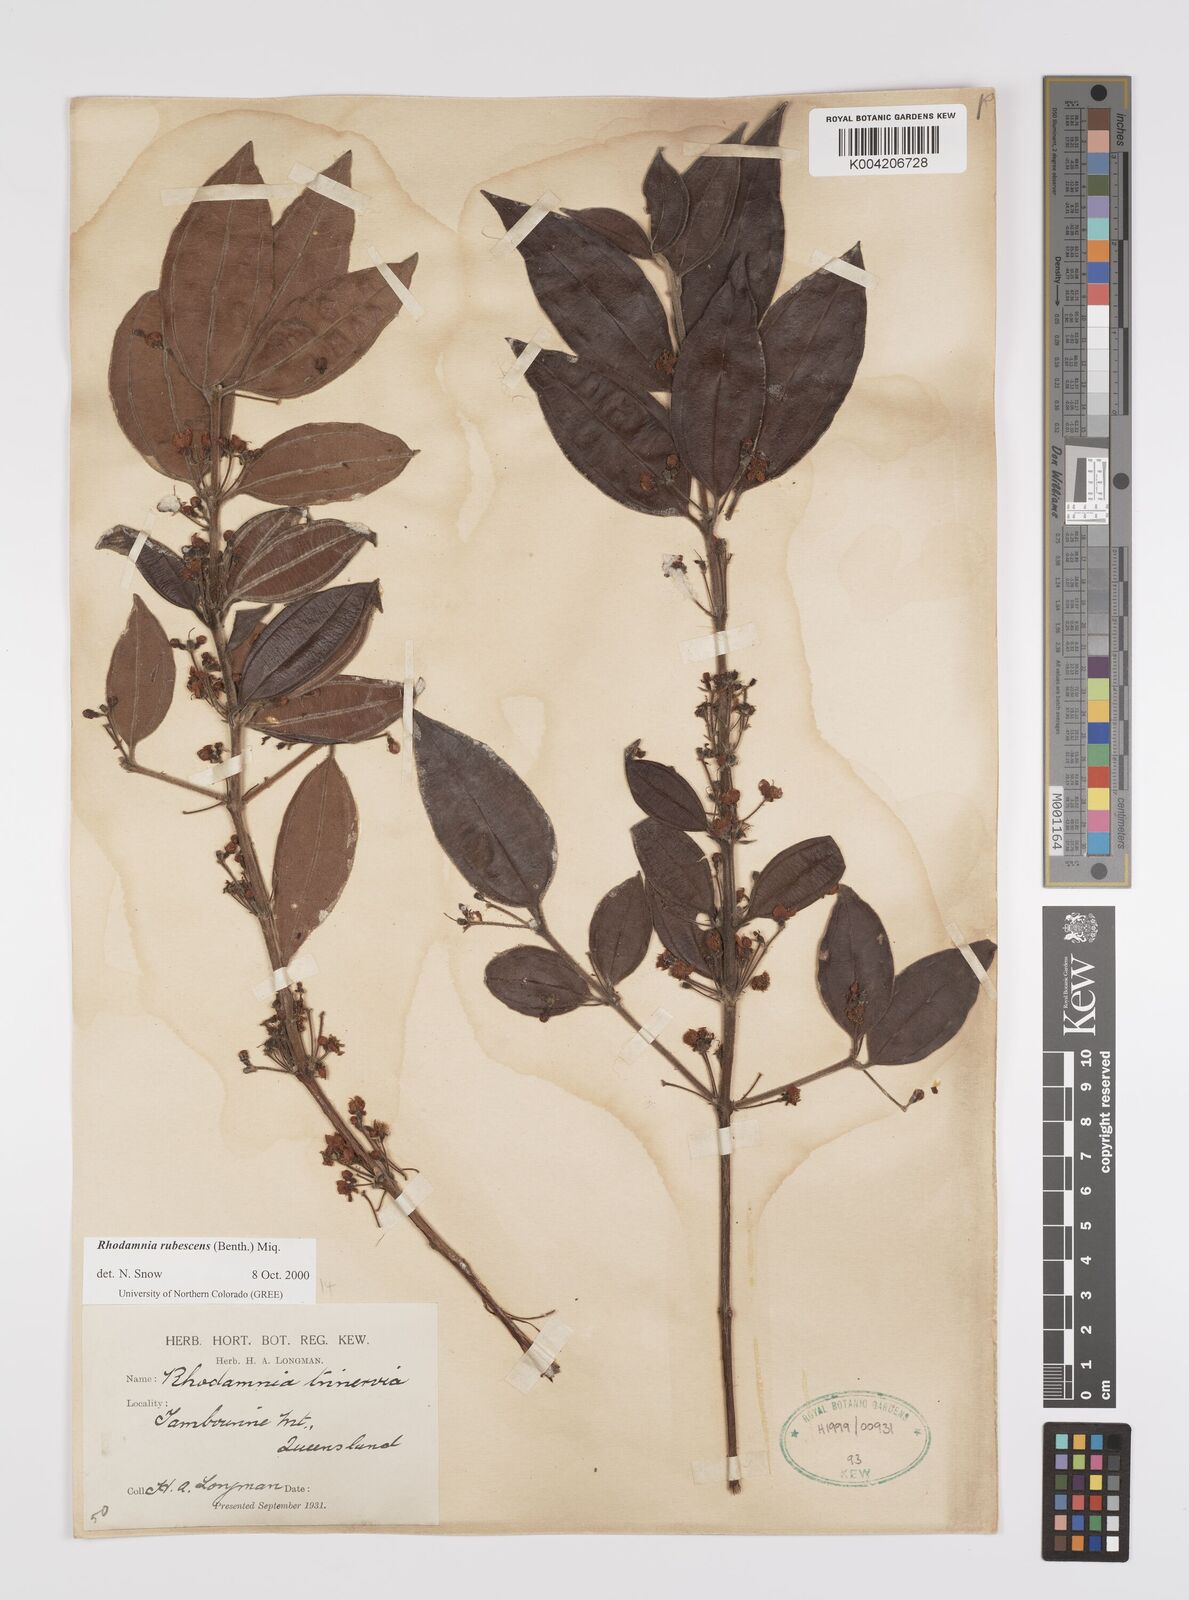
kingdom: Plantae
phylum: Tracheophyta
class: Magnoliopsida
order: Myrtales
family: Myrtaceae
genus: Rhodamnia
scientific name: Rhodamnia rubescens
